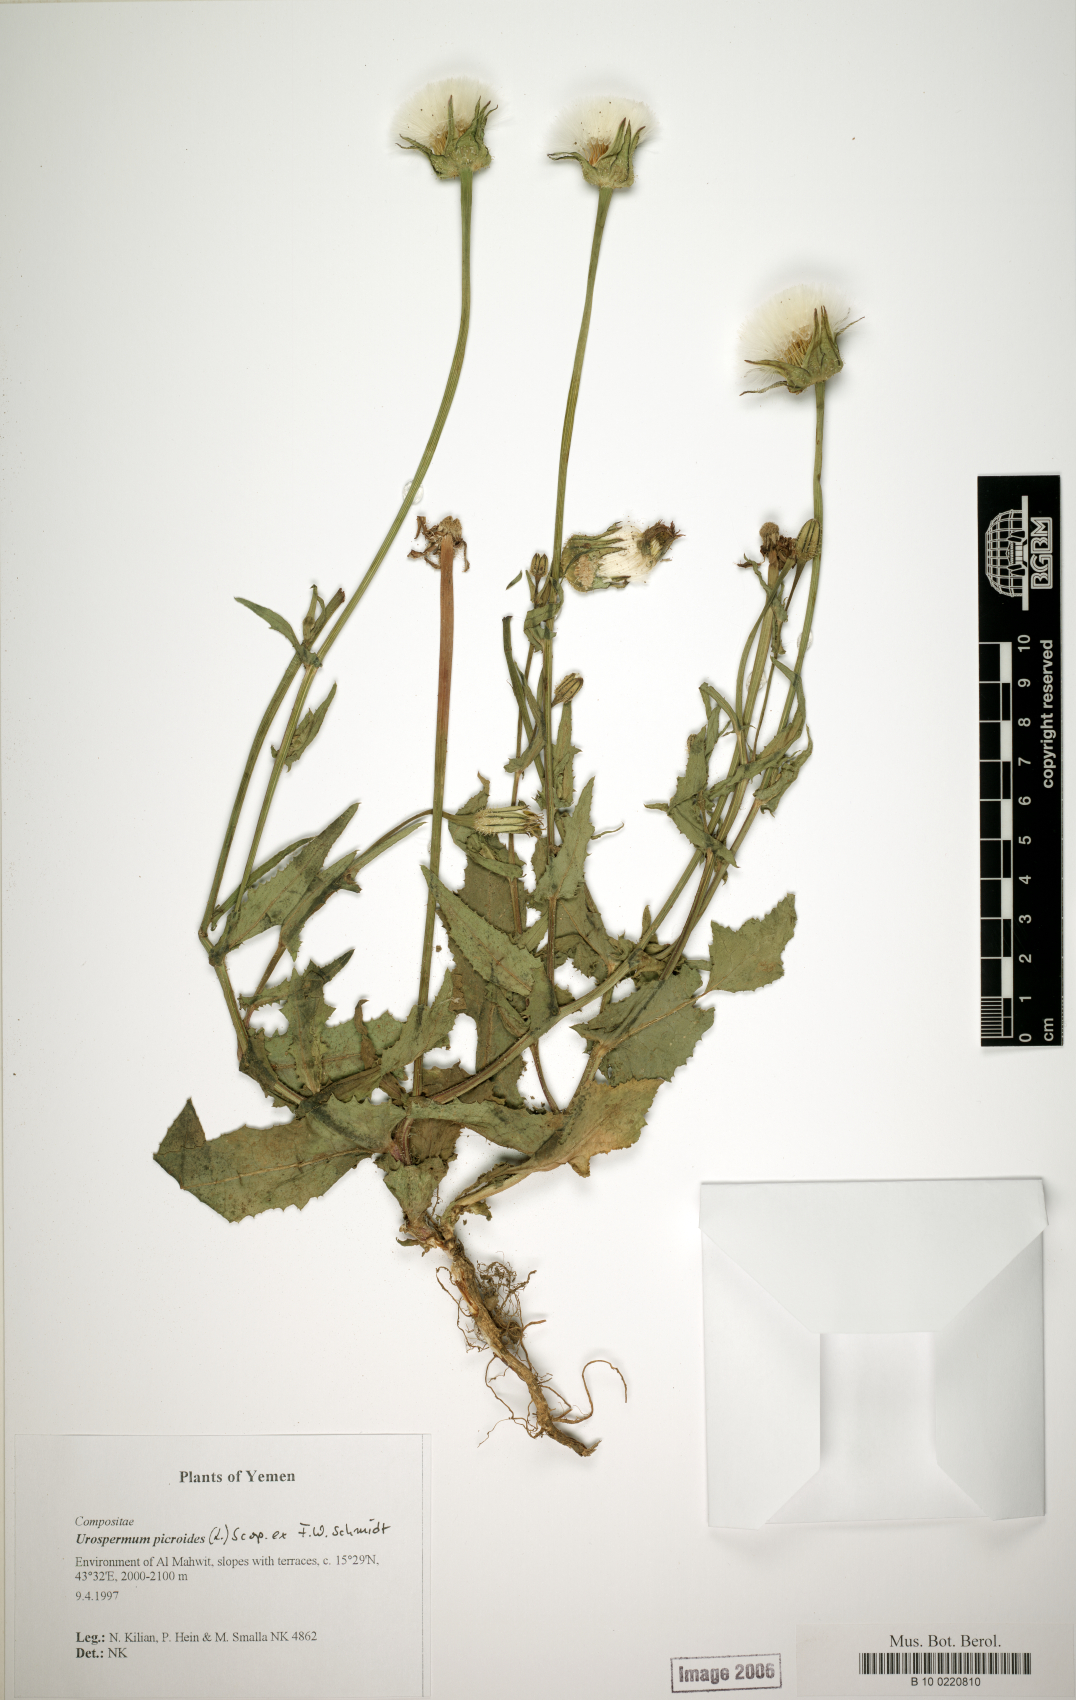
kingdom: Plantae
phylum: Tracheophyta
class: Magnoliopsida
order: Asterales
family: Asteraceae
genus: Urospermum
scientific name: Urospermum picroides
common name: False hawkbit
